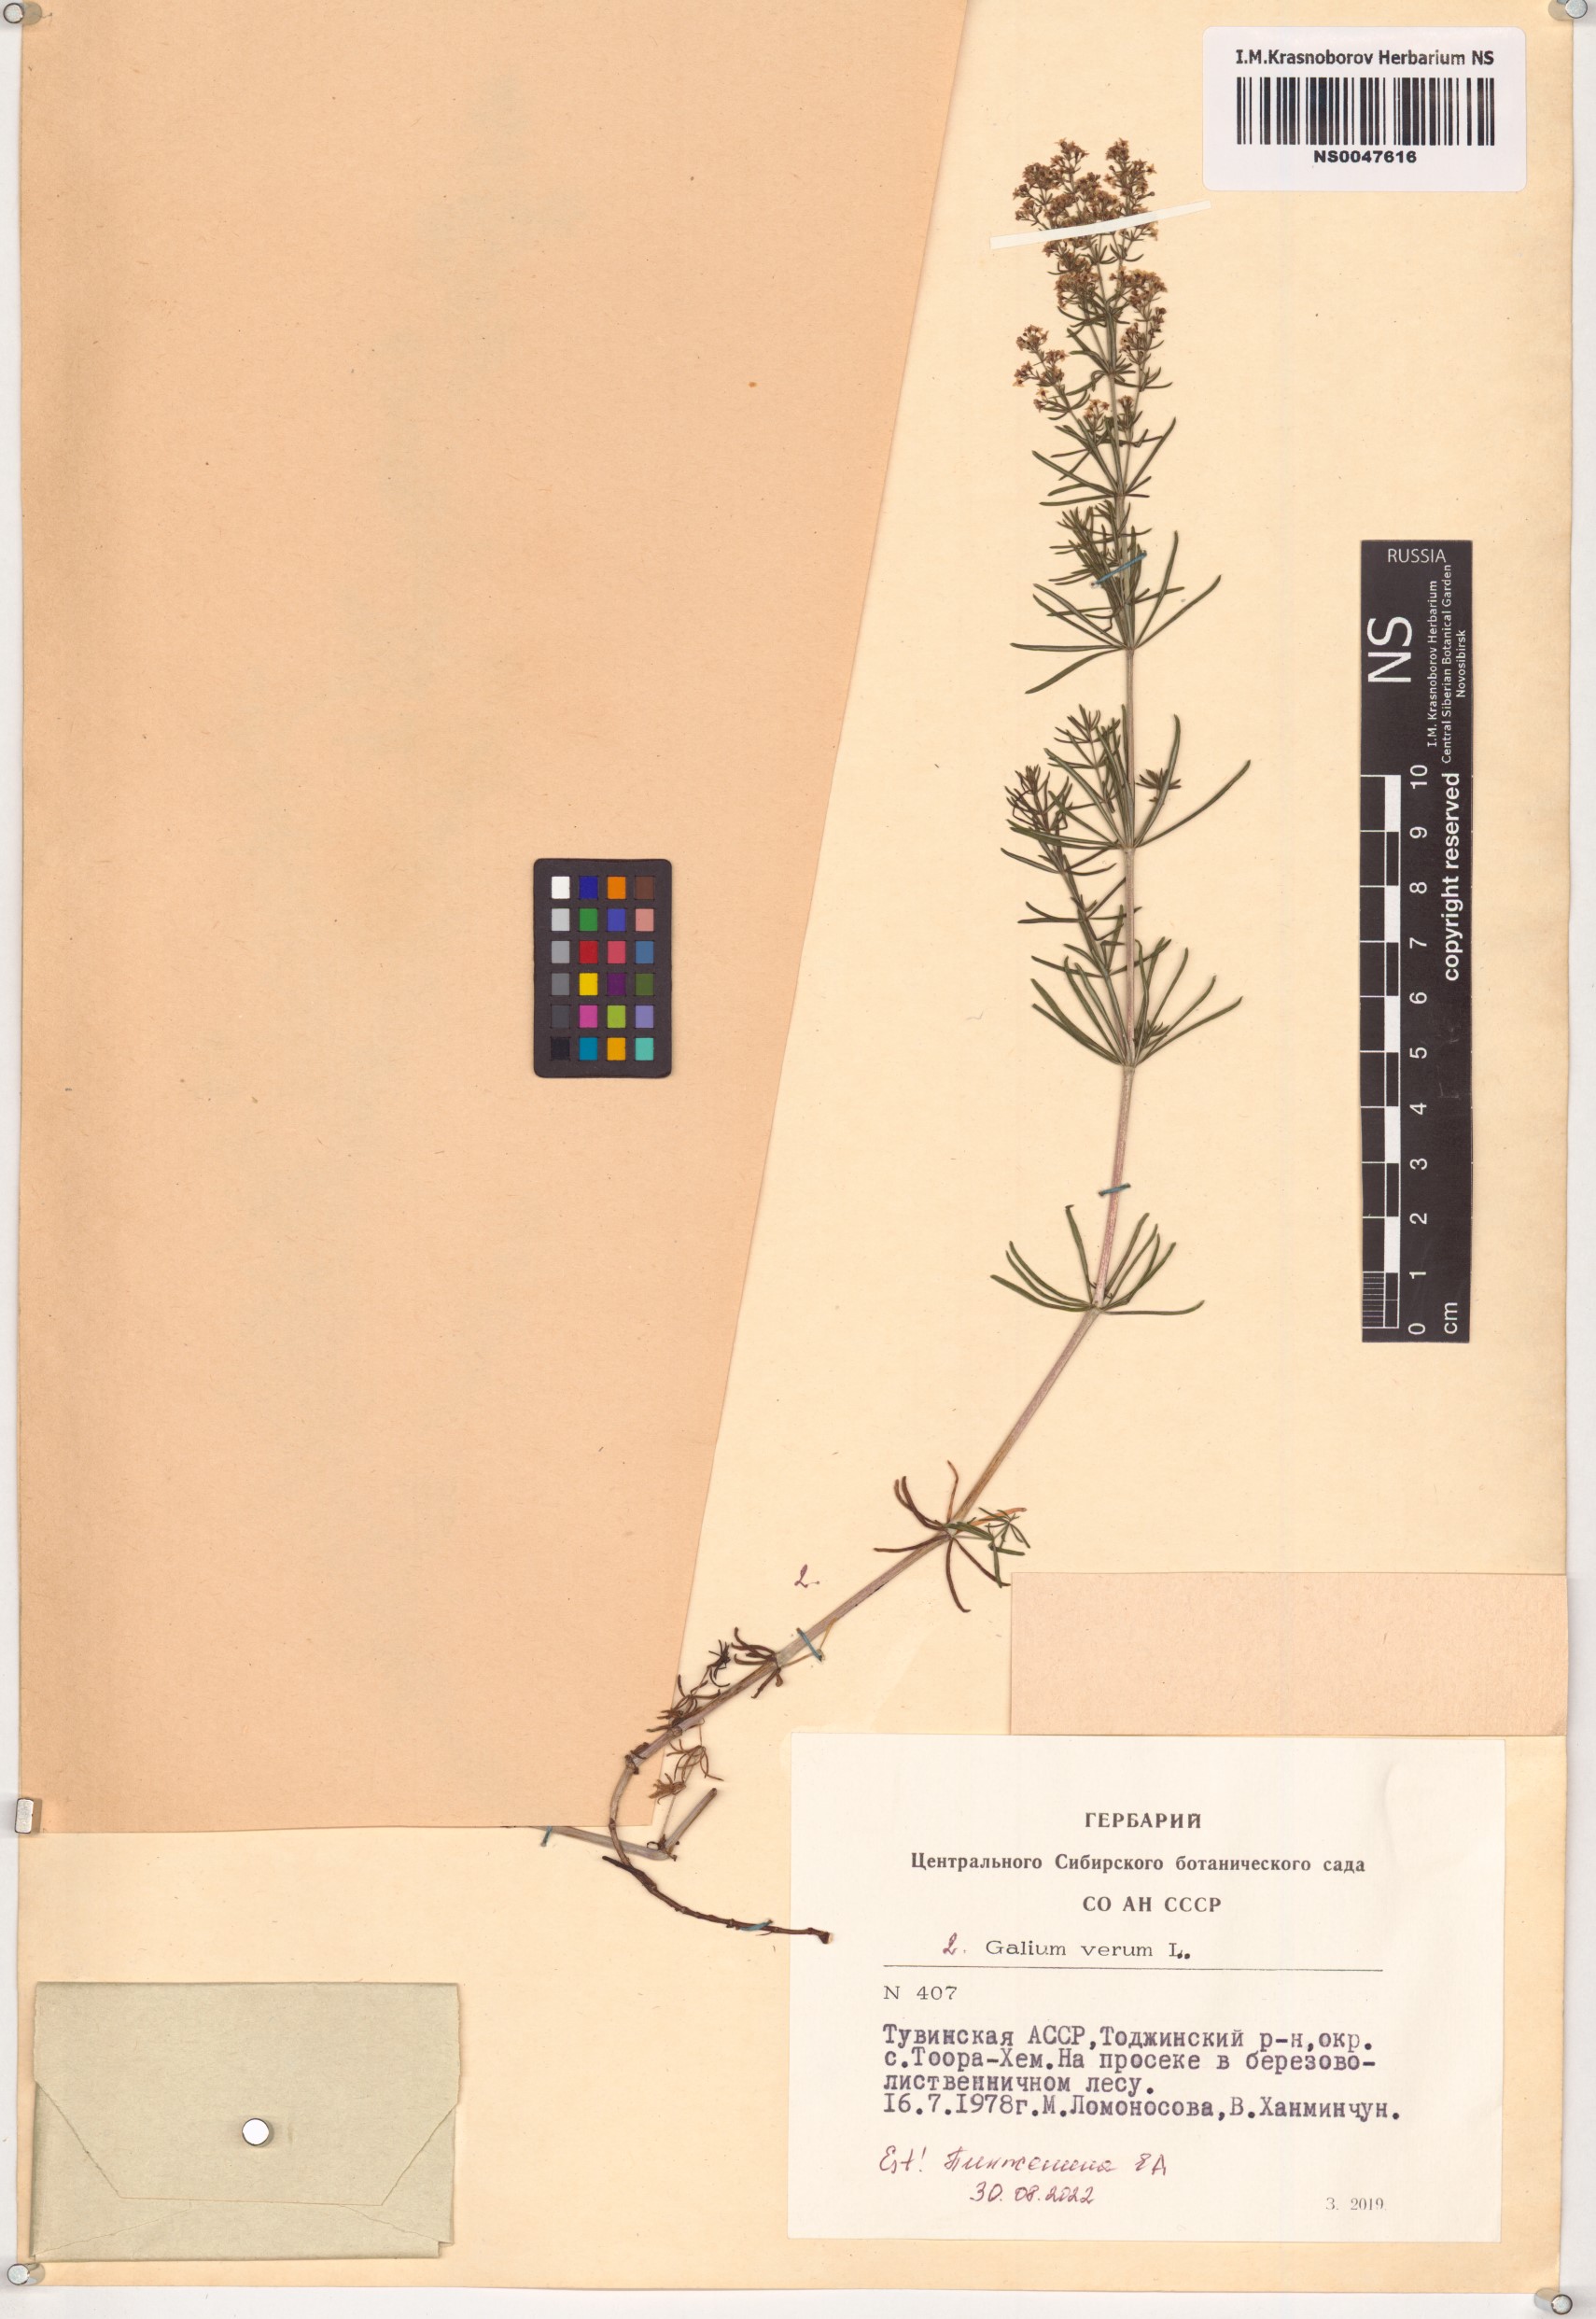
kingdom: Plantae
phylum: Tracheophyta
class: Magnoliopsida
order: Gentianales
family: Rubiaceae
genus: Galium
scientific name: Galium verum
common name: Lady's bedstraw
